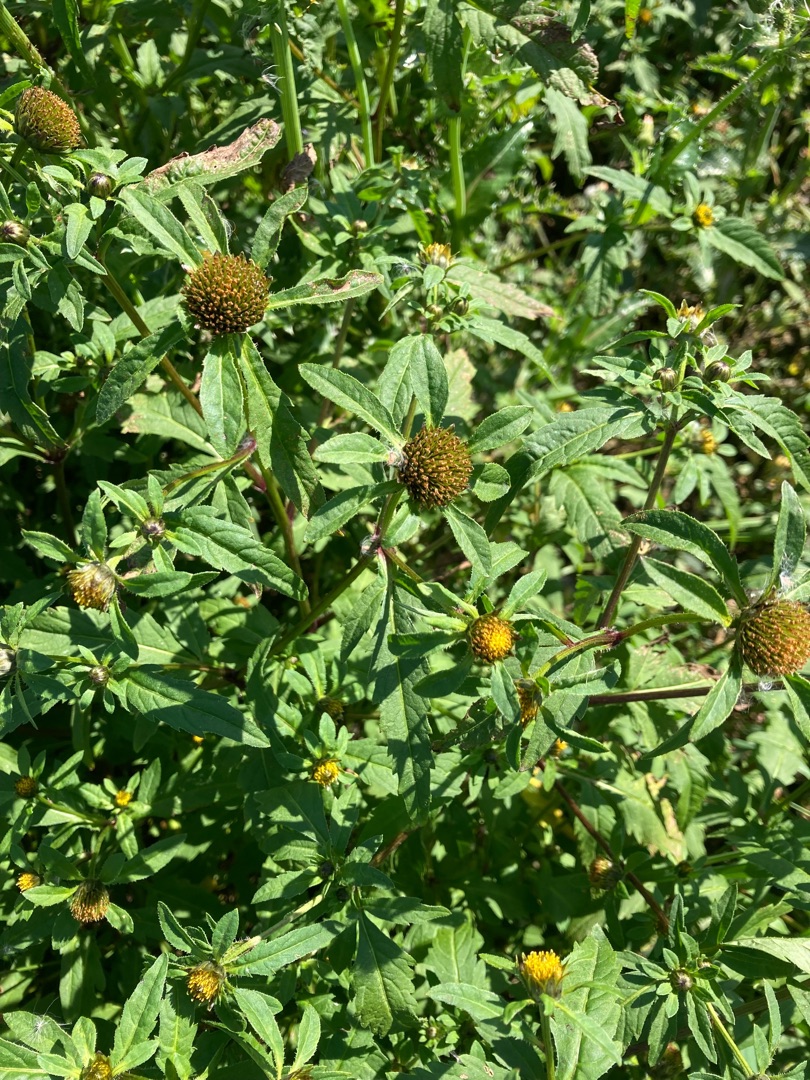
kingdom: Plantae
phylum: Tracheophyta
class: Magnoliopsida
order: Asterales
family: Asteraceae
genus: Bidens
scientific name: Bidens tripartita
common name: Fliget brøndsel
